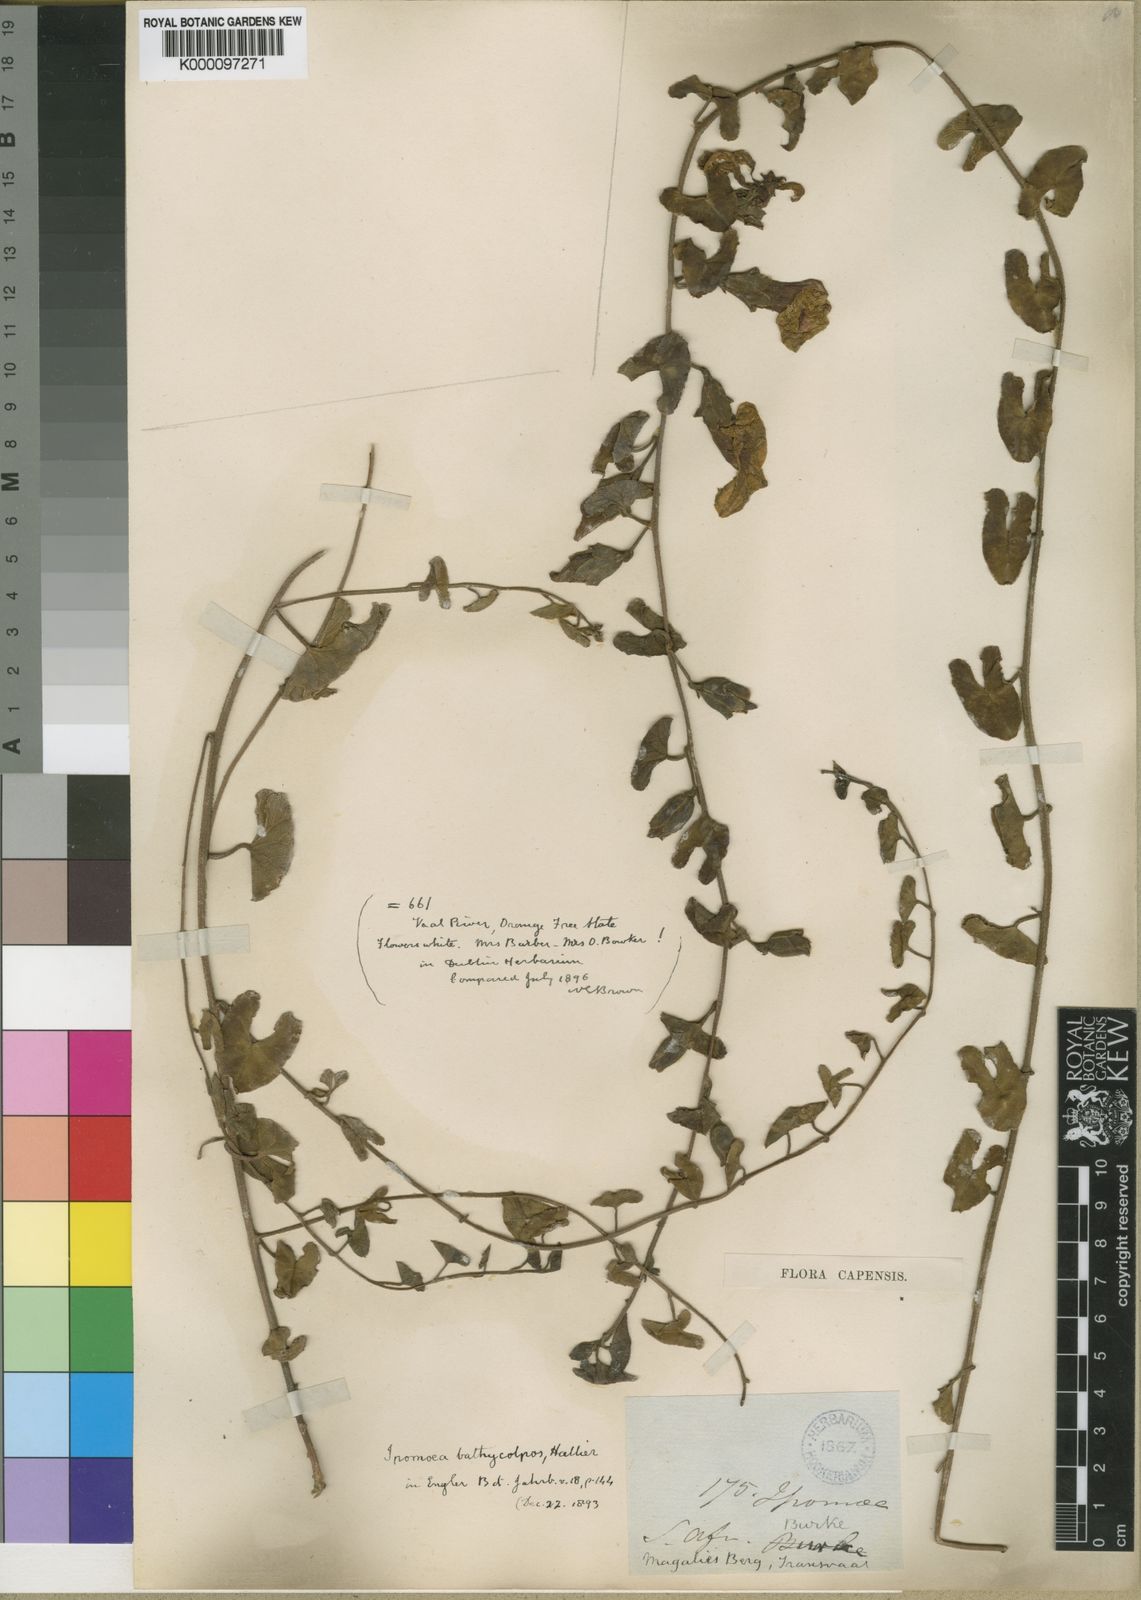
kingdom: Plantae
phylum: Tracheophyta
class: Magnoliopsida
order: Solanales
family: Convolvulaceae
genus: Ipomoea
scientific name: Ipomoea bathycolpos
